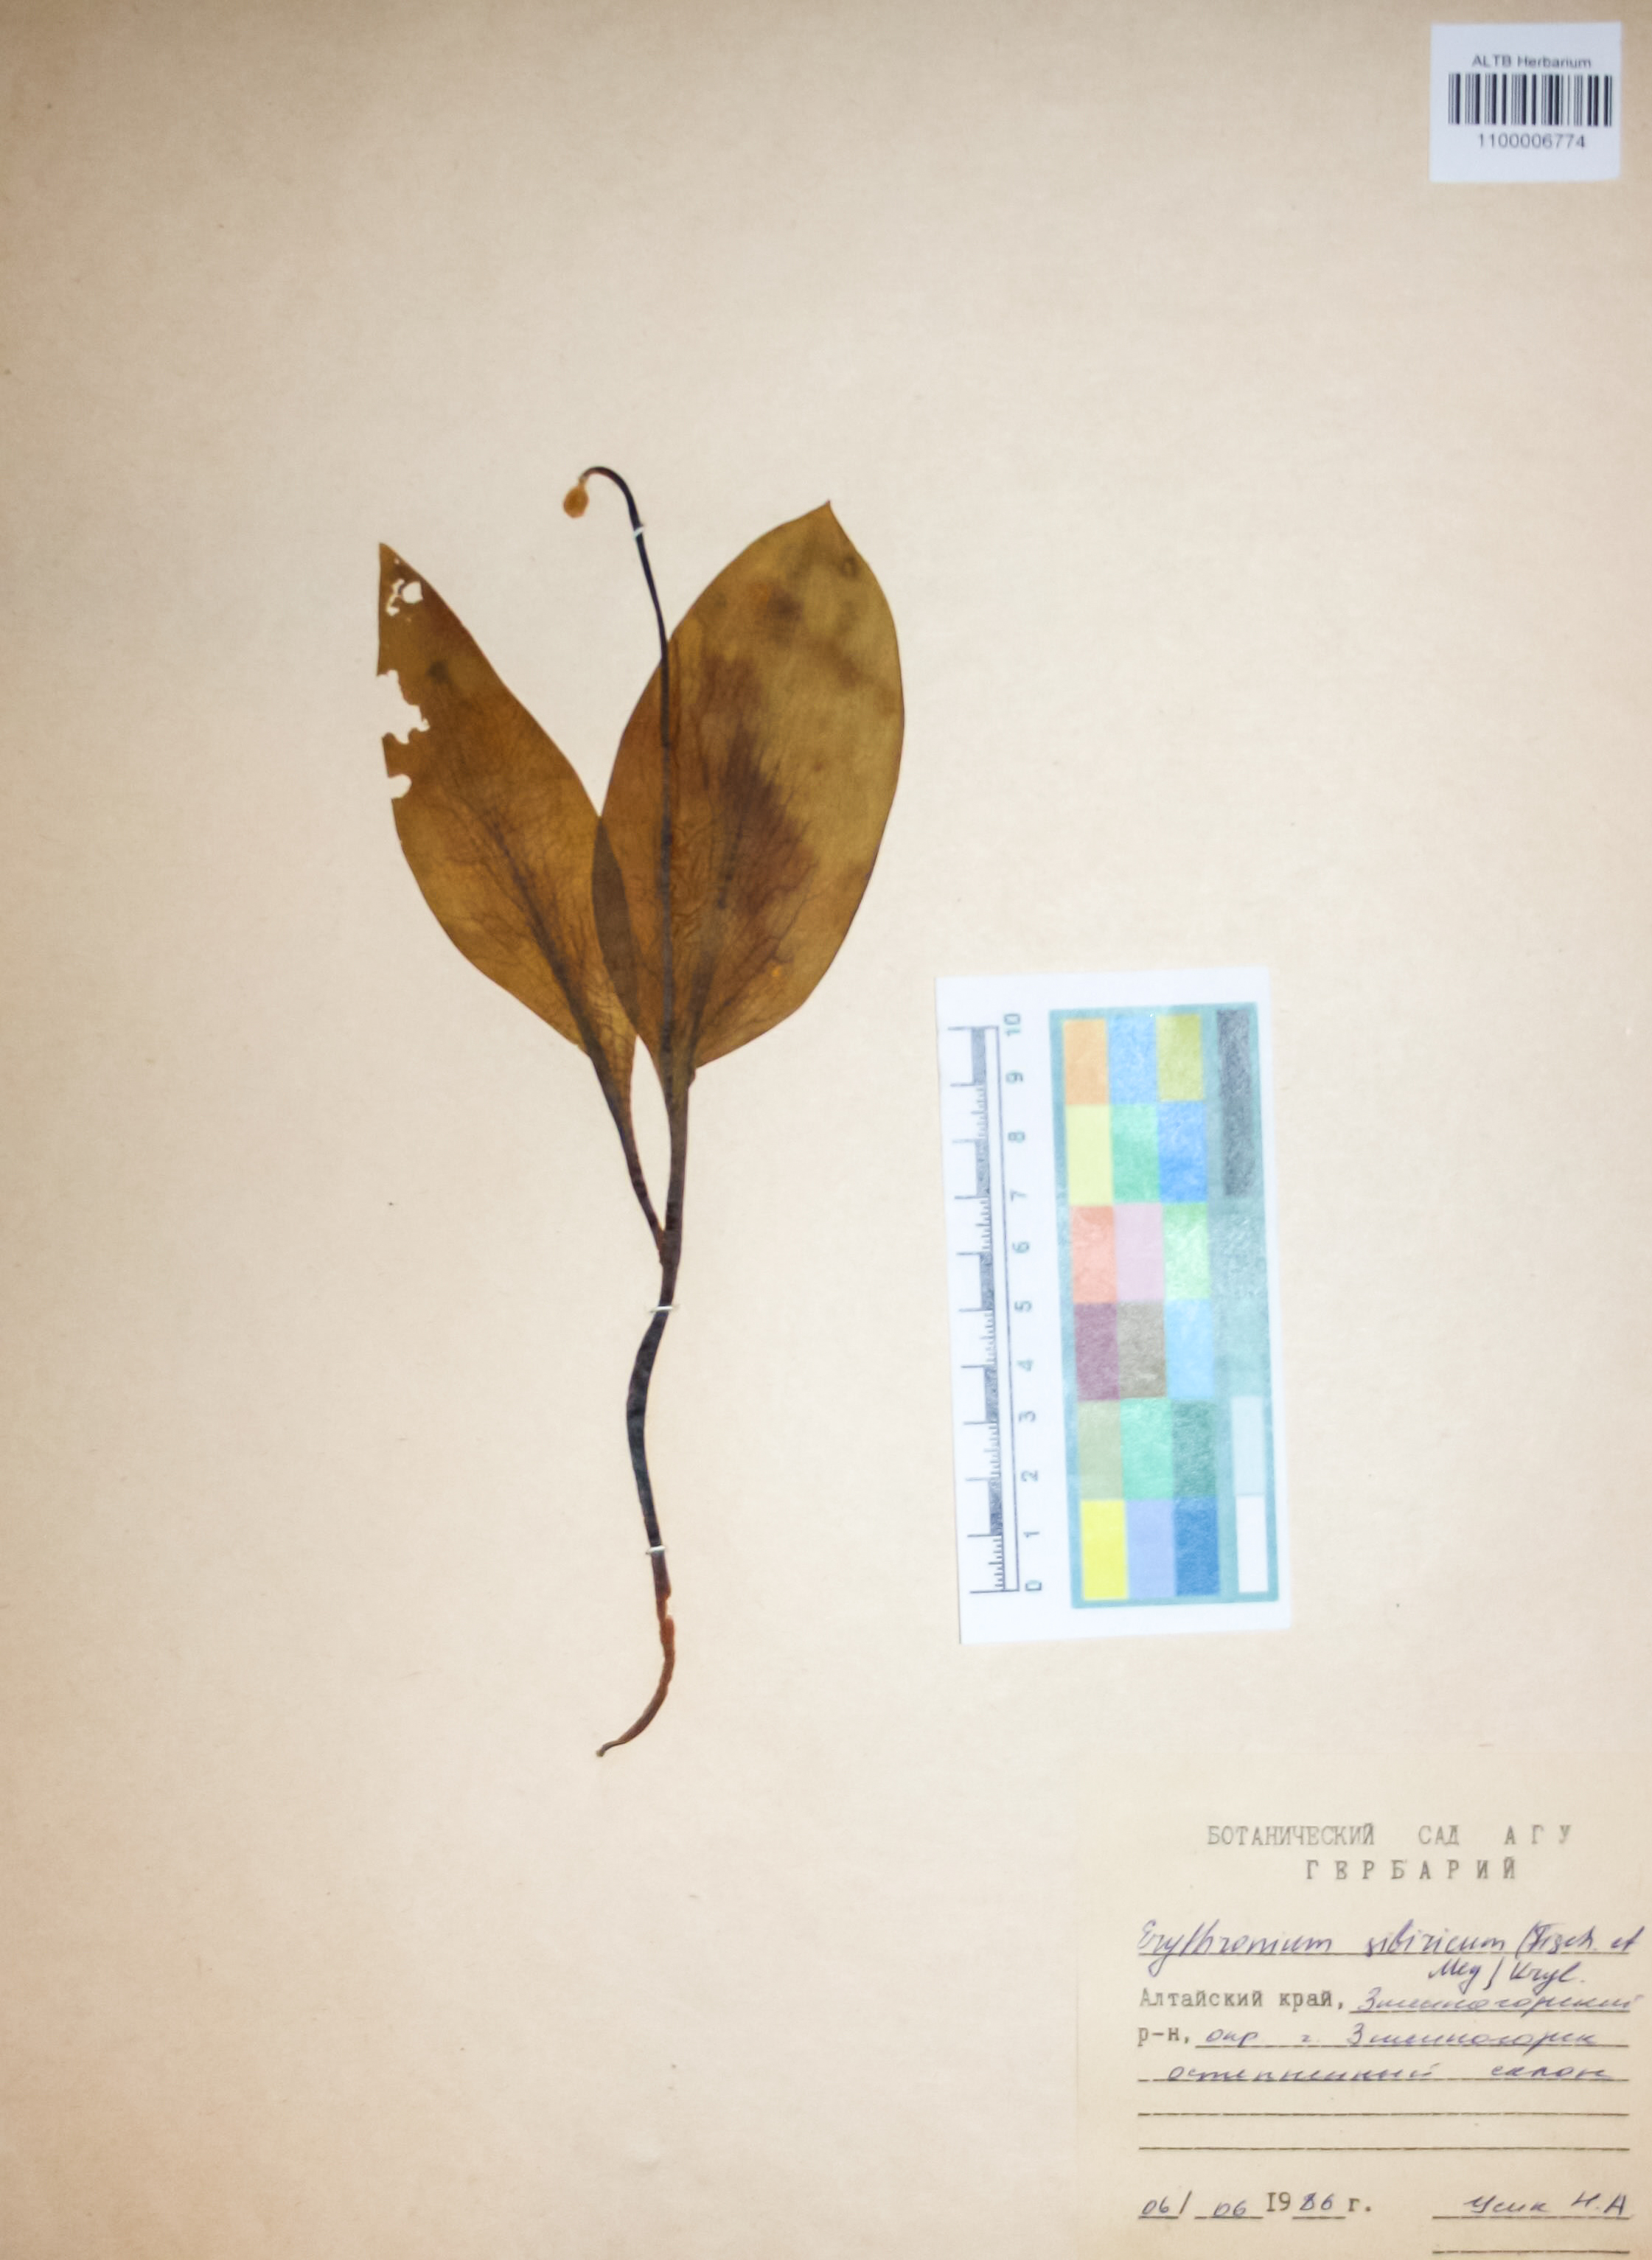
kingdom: Plantae
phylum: Tracheophyta
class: Liliopsida
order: Liliales
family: Liliaceae
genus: Erythronium
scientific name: Erythronium sibiricum
